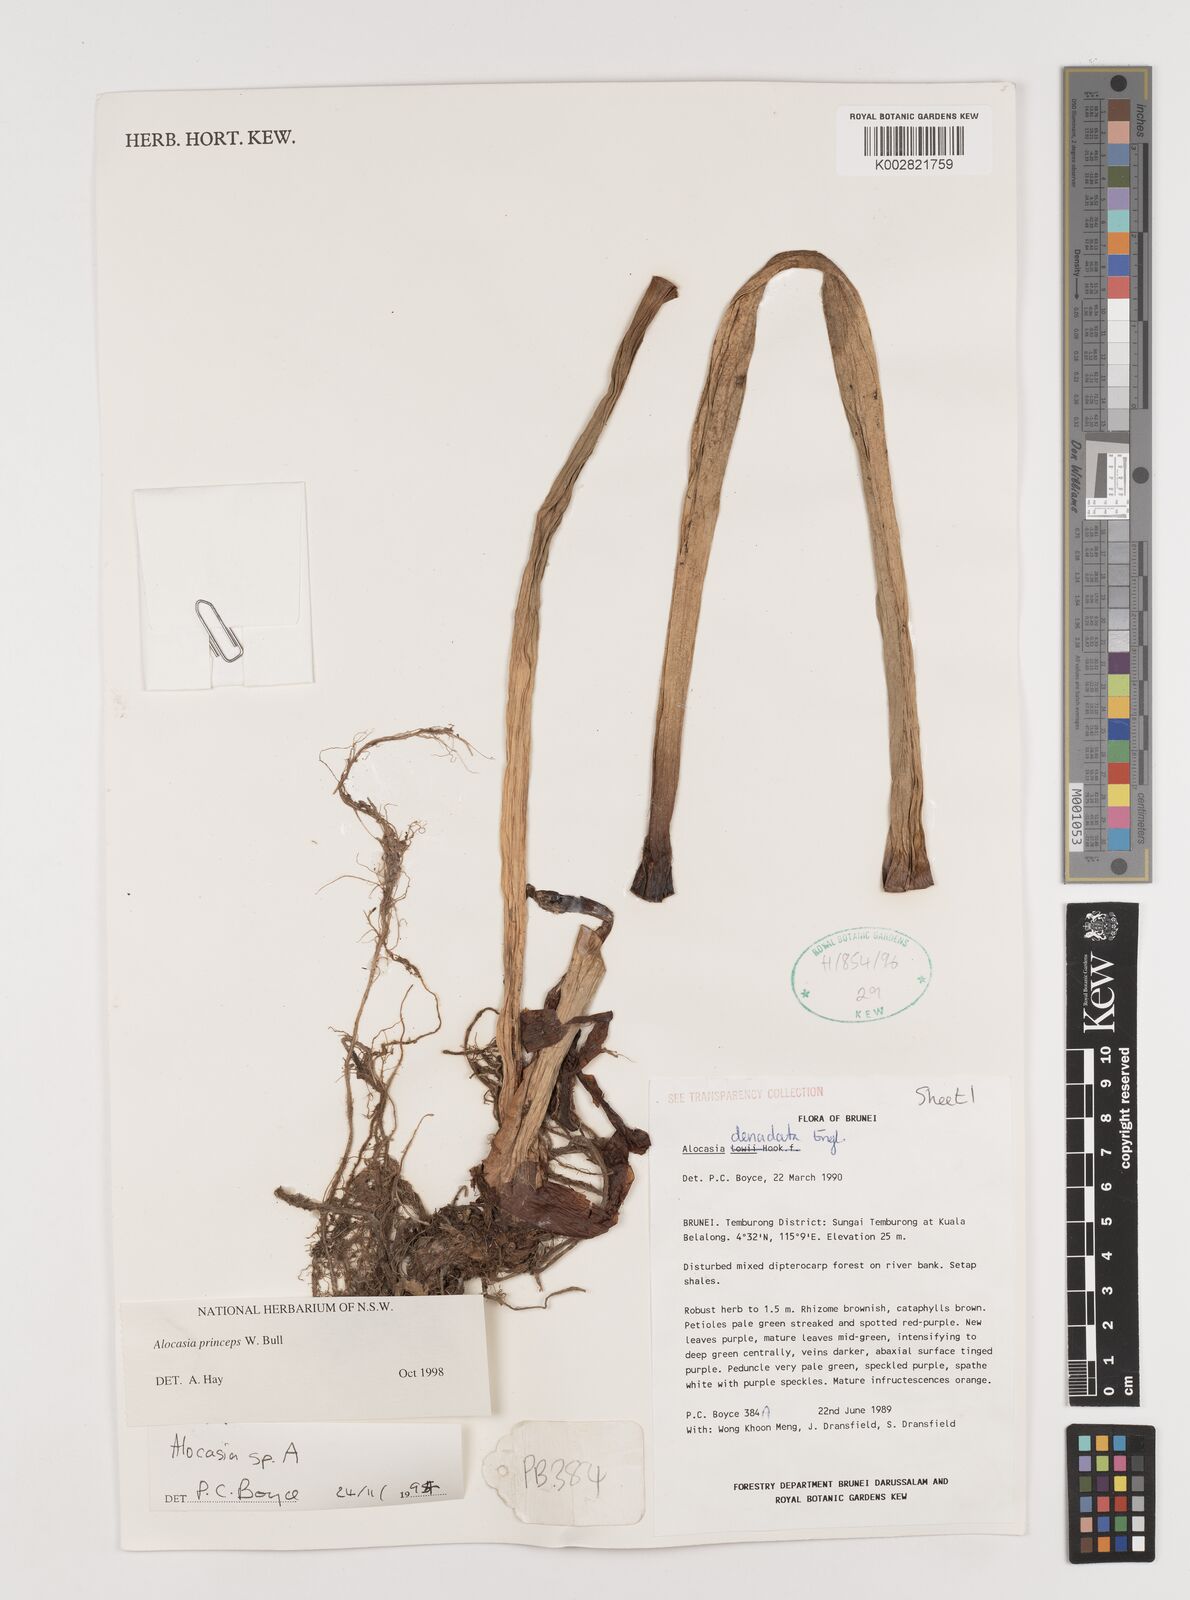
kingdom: Plantae
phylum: Tracheophyta
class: Liliopsida
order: Alismatales
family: Araceae
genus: Alocasia
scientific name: Alocasia princeps
